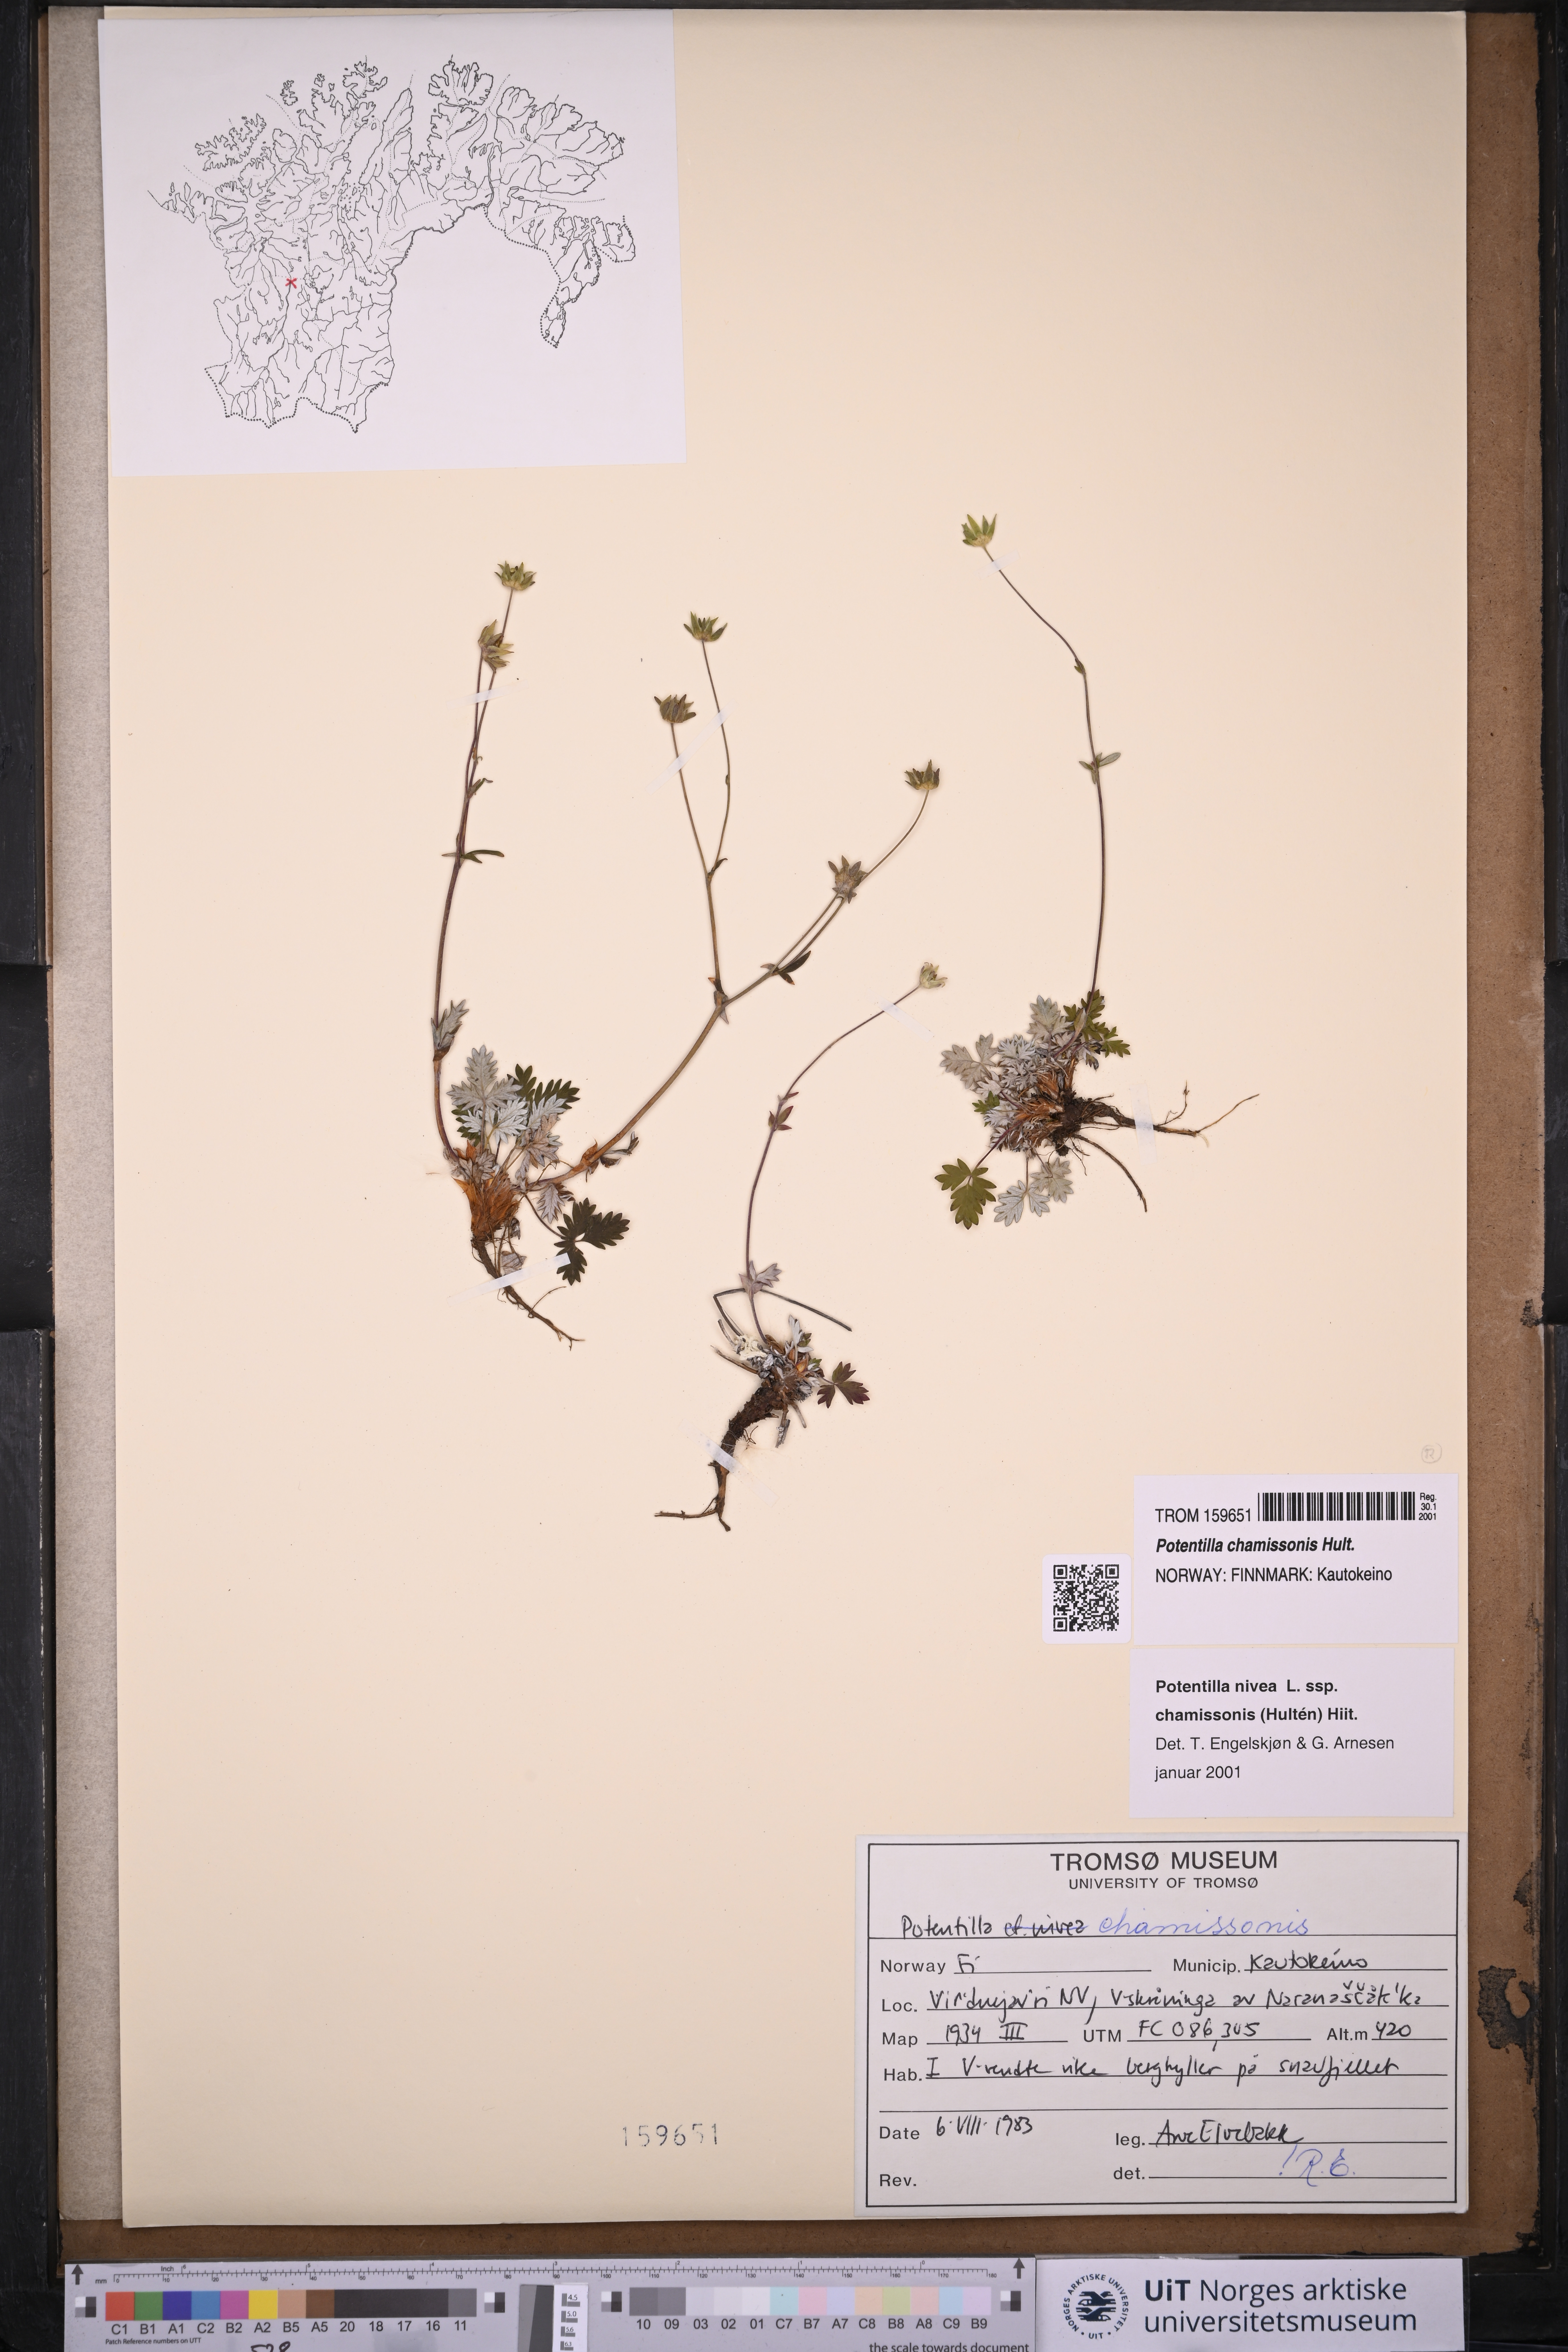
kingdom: Plantae
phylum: Tracheophyta
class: Magnoliopsida
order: Rosales
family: Rosaceae
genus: Potentilla
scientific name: Potentilla chamissonis
